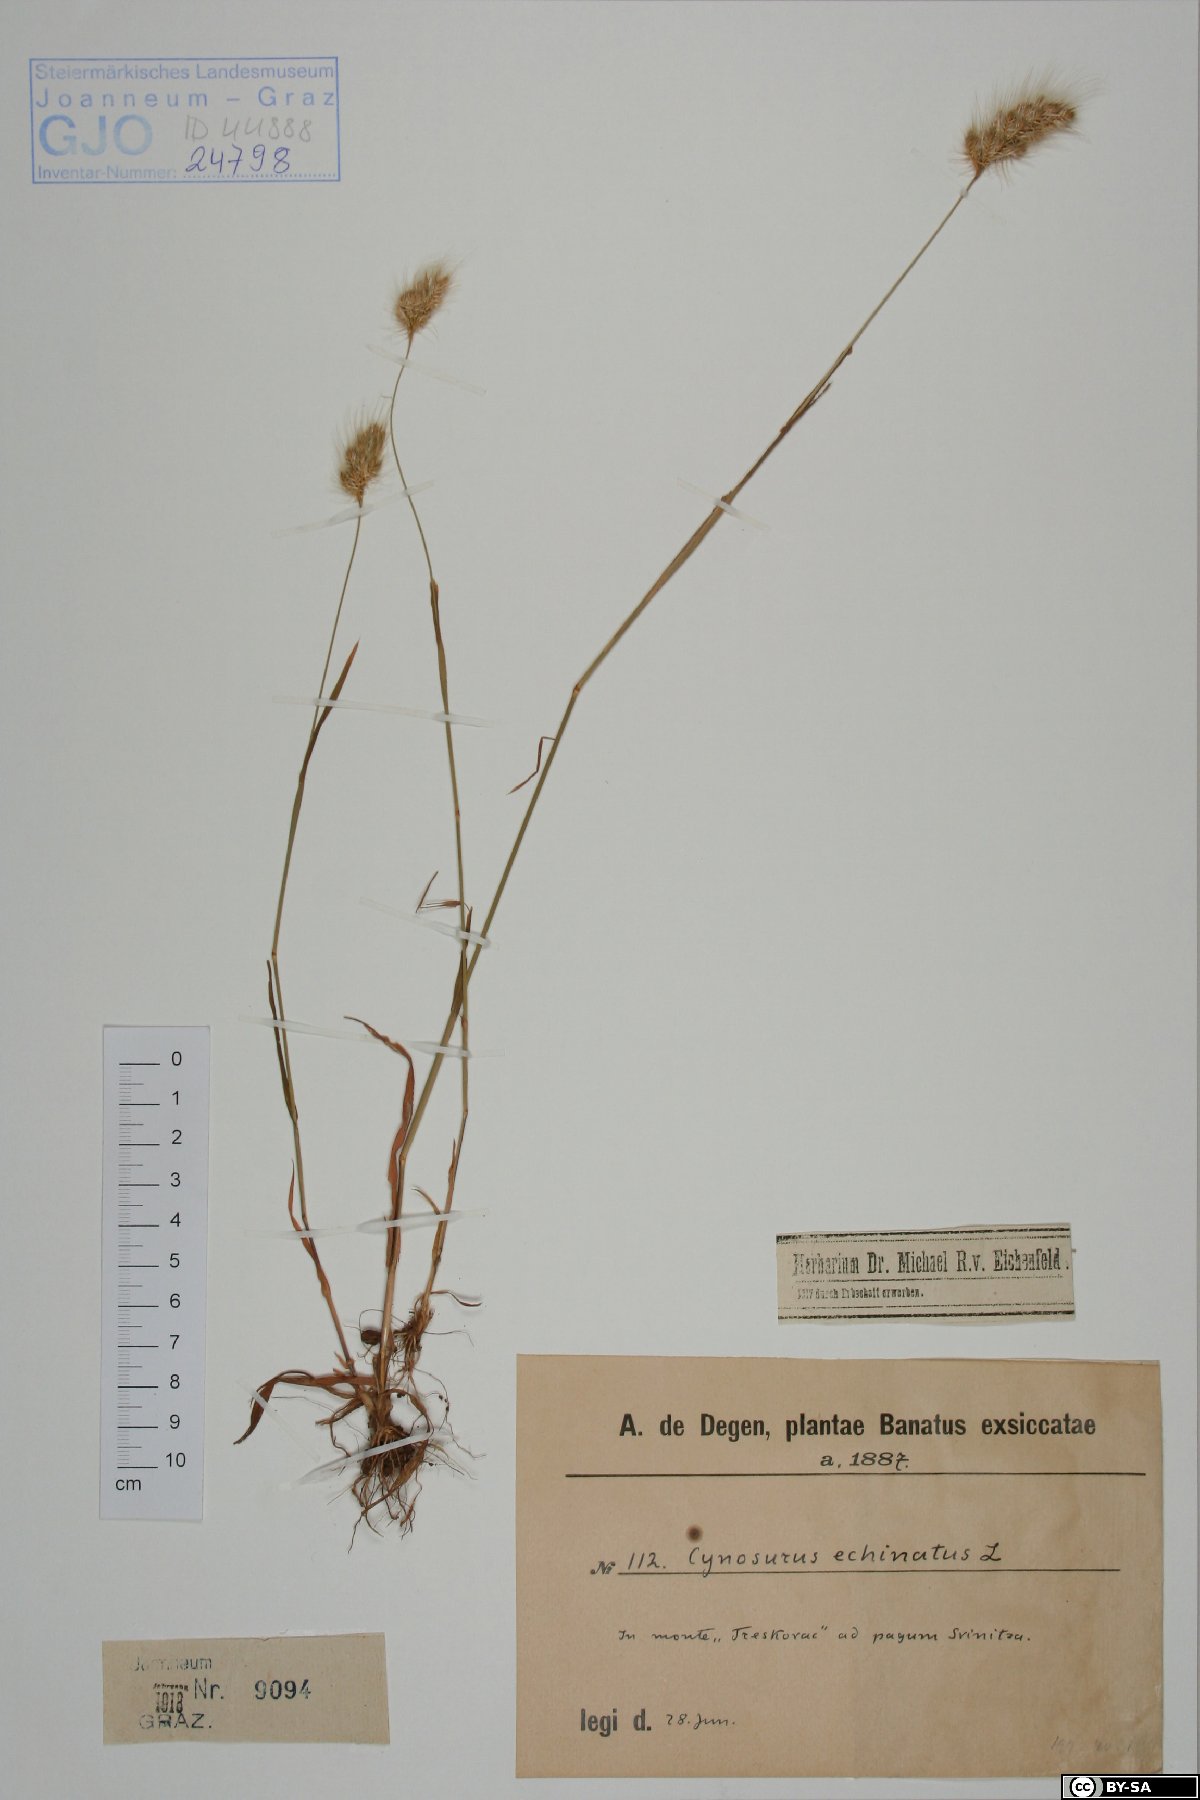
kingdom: Plantae
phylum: Tracheophyta
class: Liliopsida
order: Poales
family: Poaceae
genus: Cynosurus
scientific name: Cynosurus echinatus
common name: Rough dog's-tail
